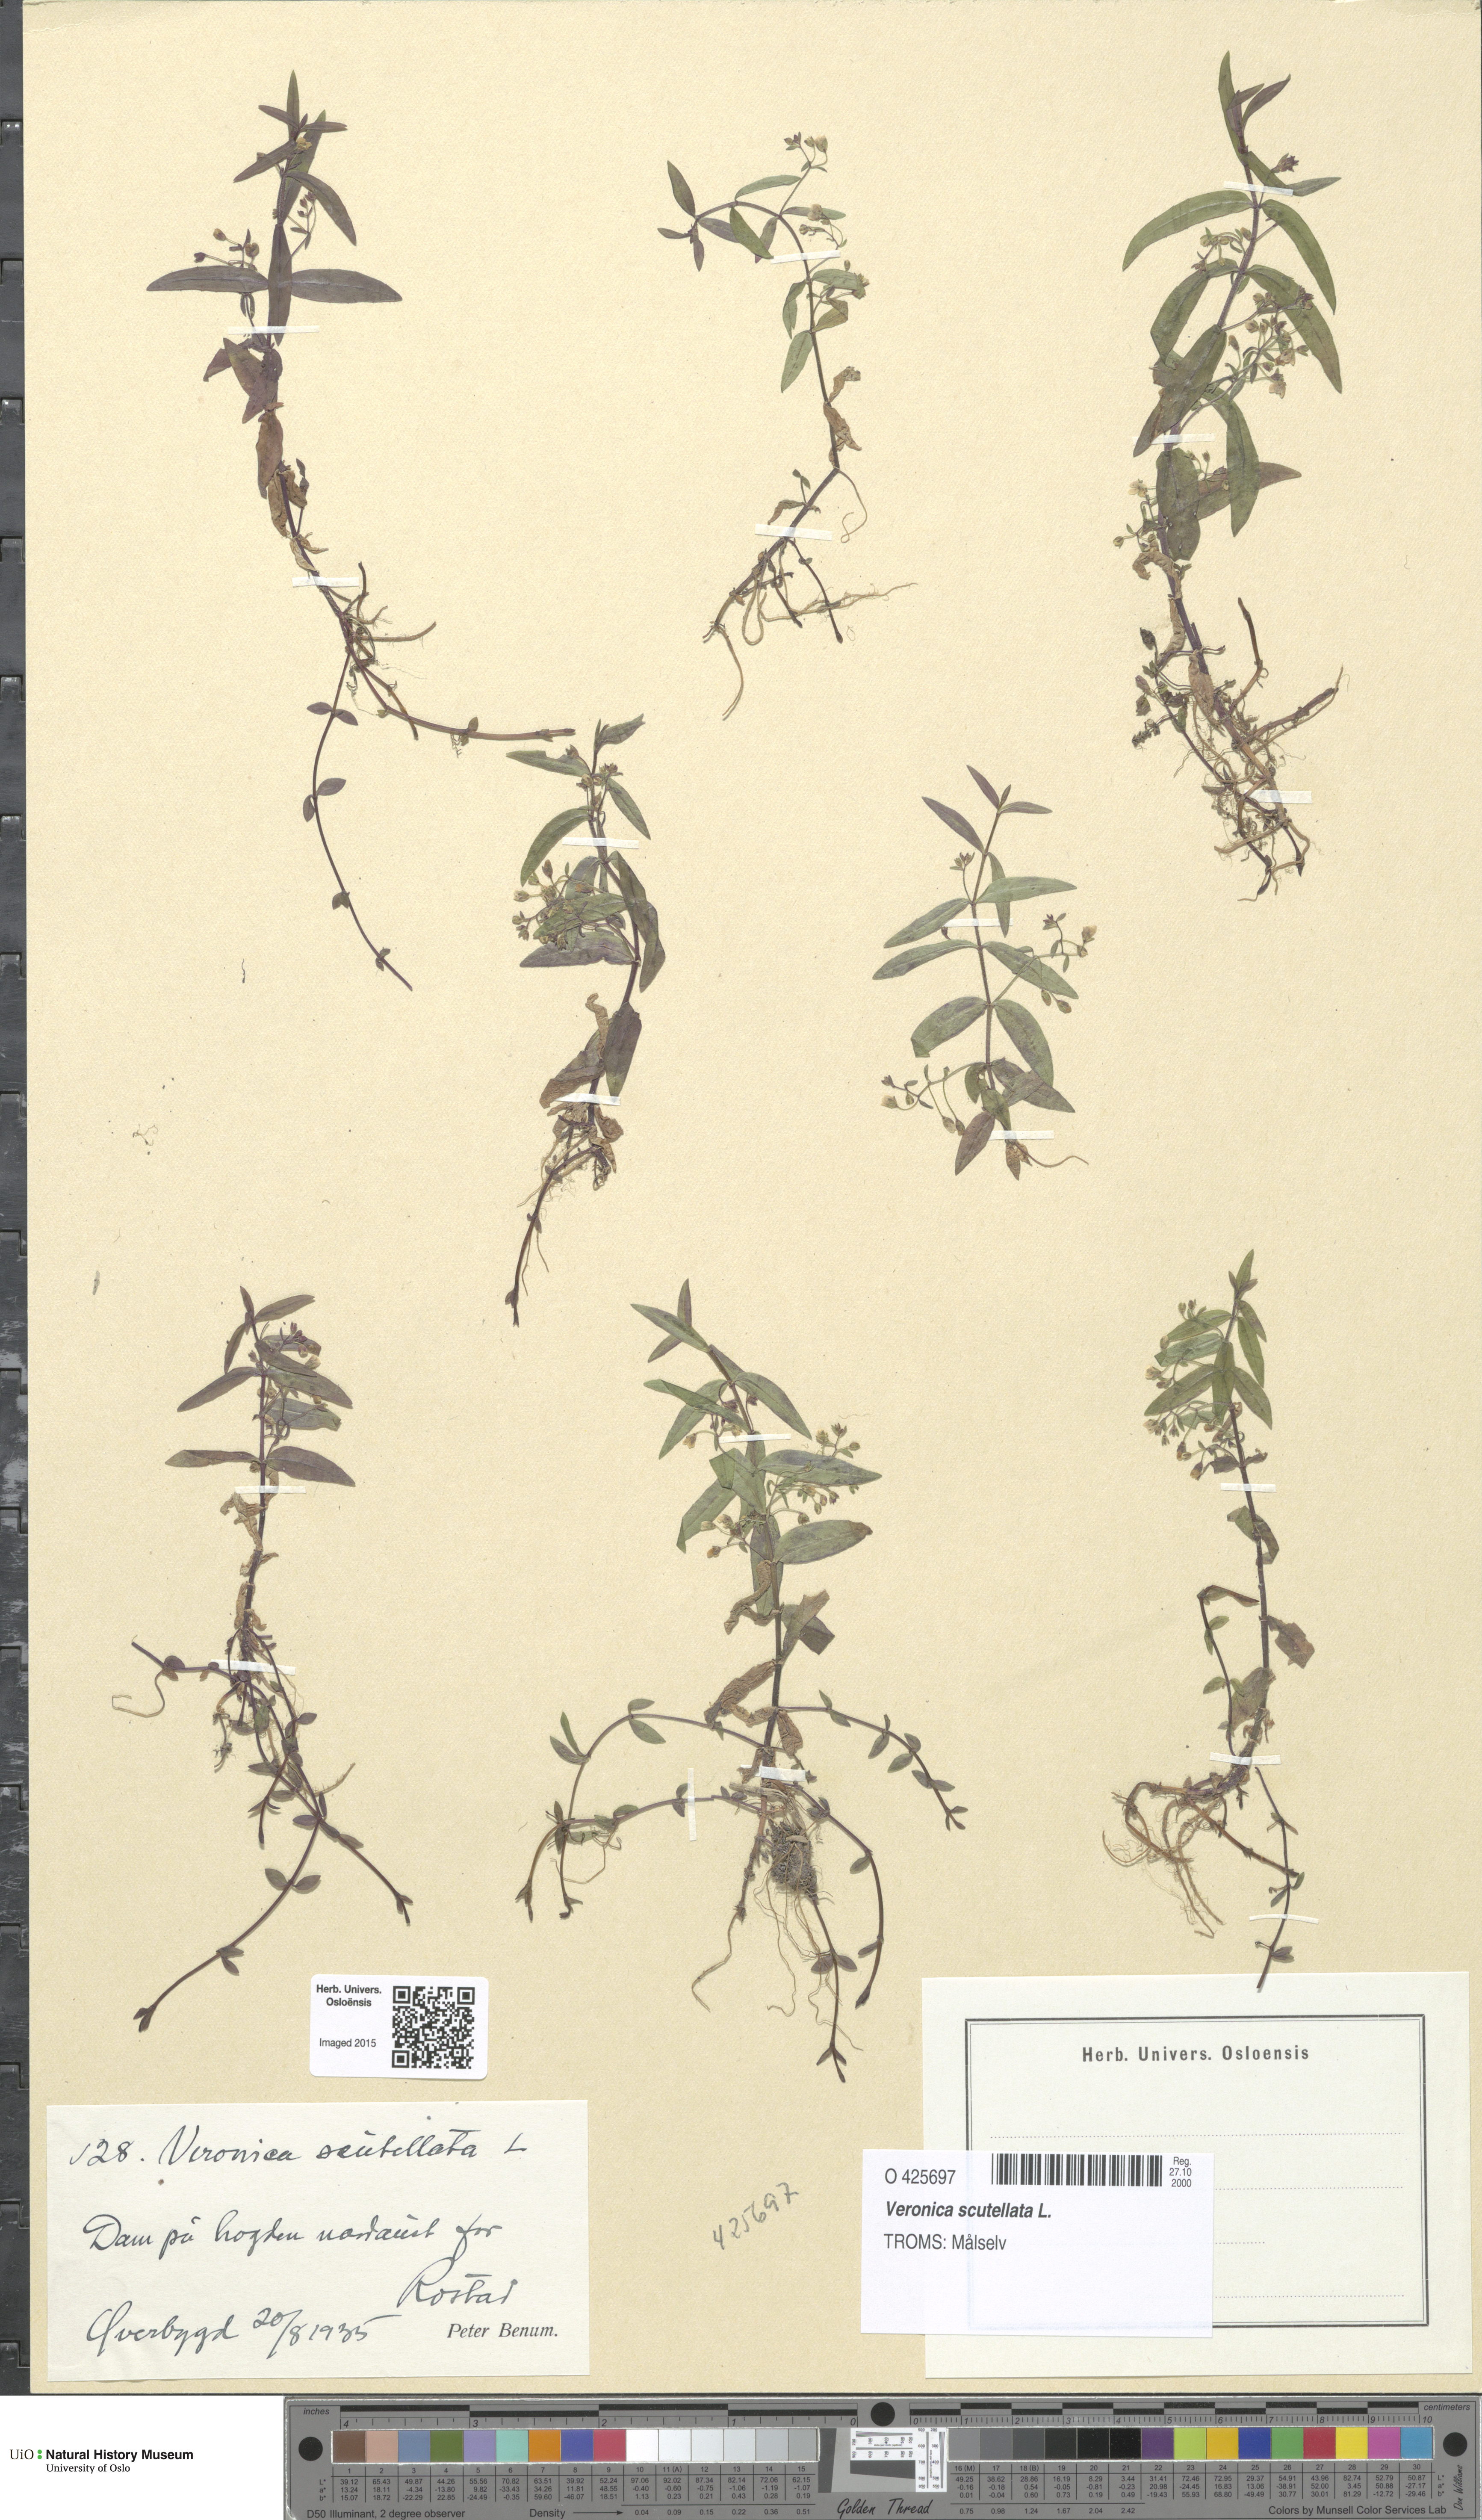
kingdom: Plantae
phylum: Tracheophyta
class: Magnoliopsida
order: Lamiales
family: Plantaginaceae
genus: Veronica
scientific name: Veronica scutellata
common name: Marsh speedwell
